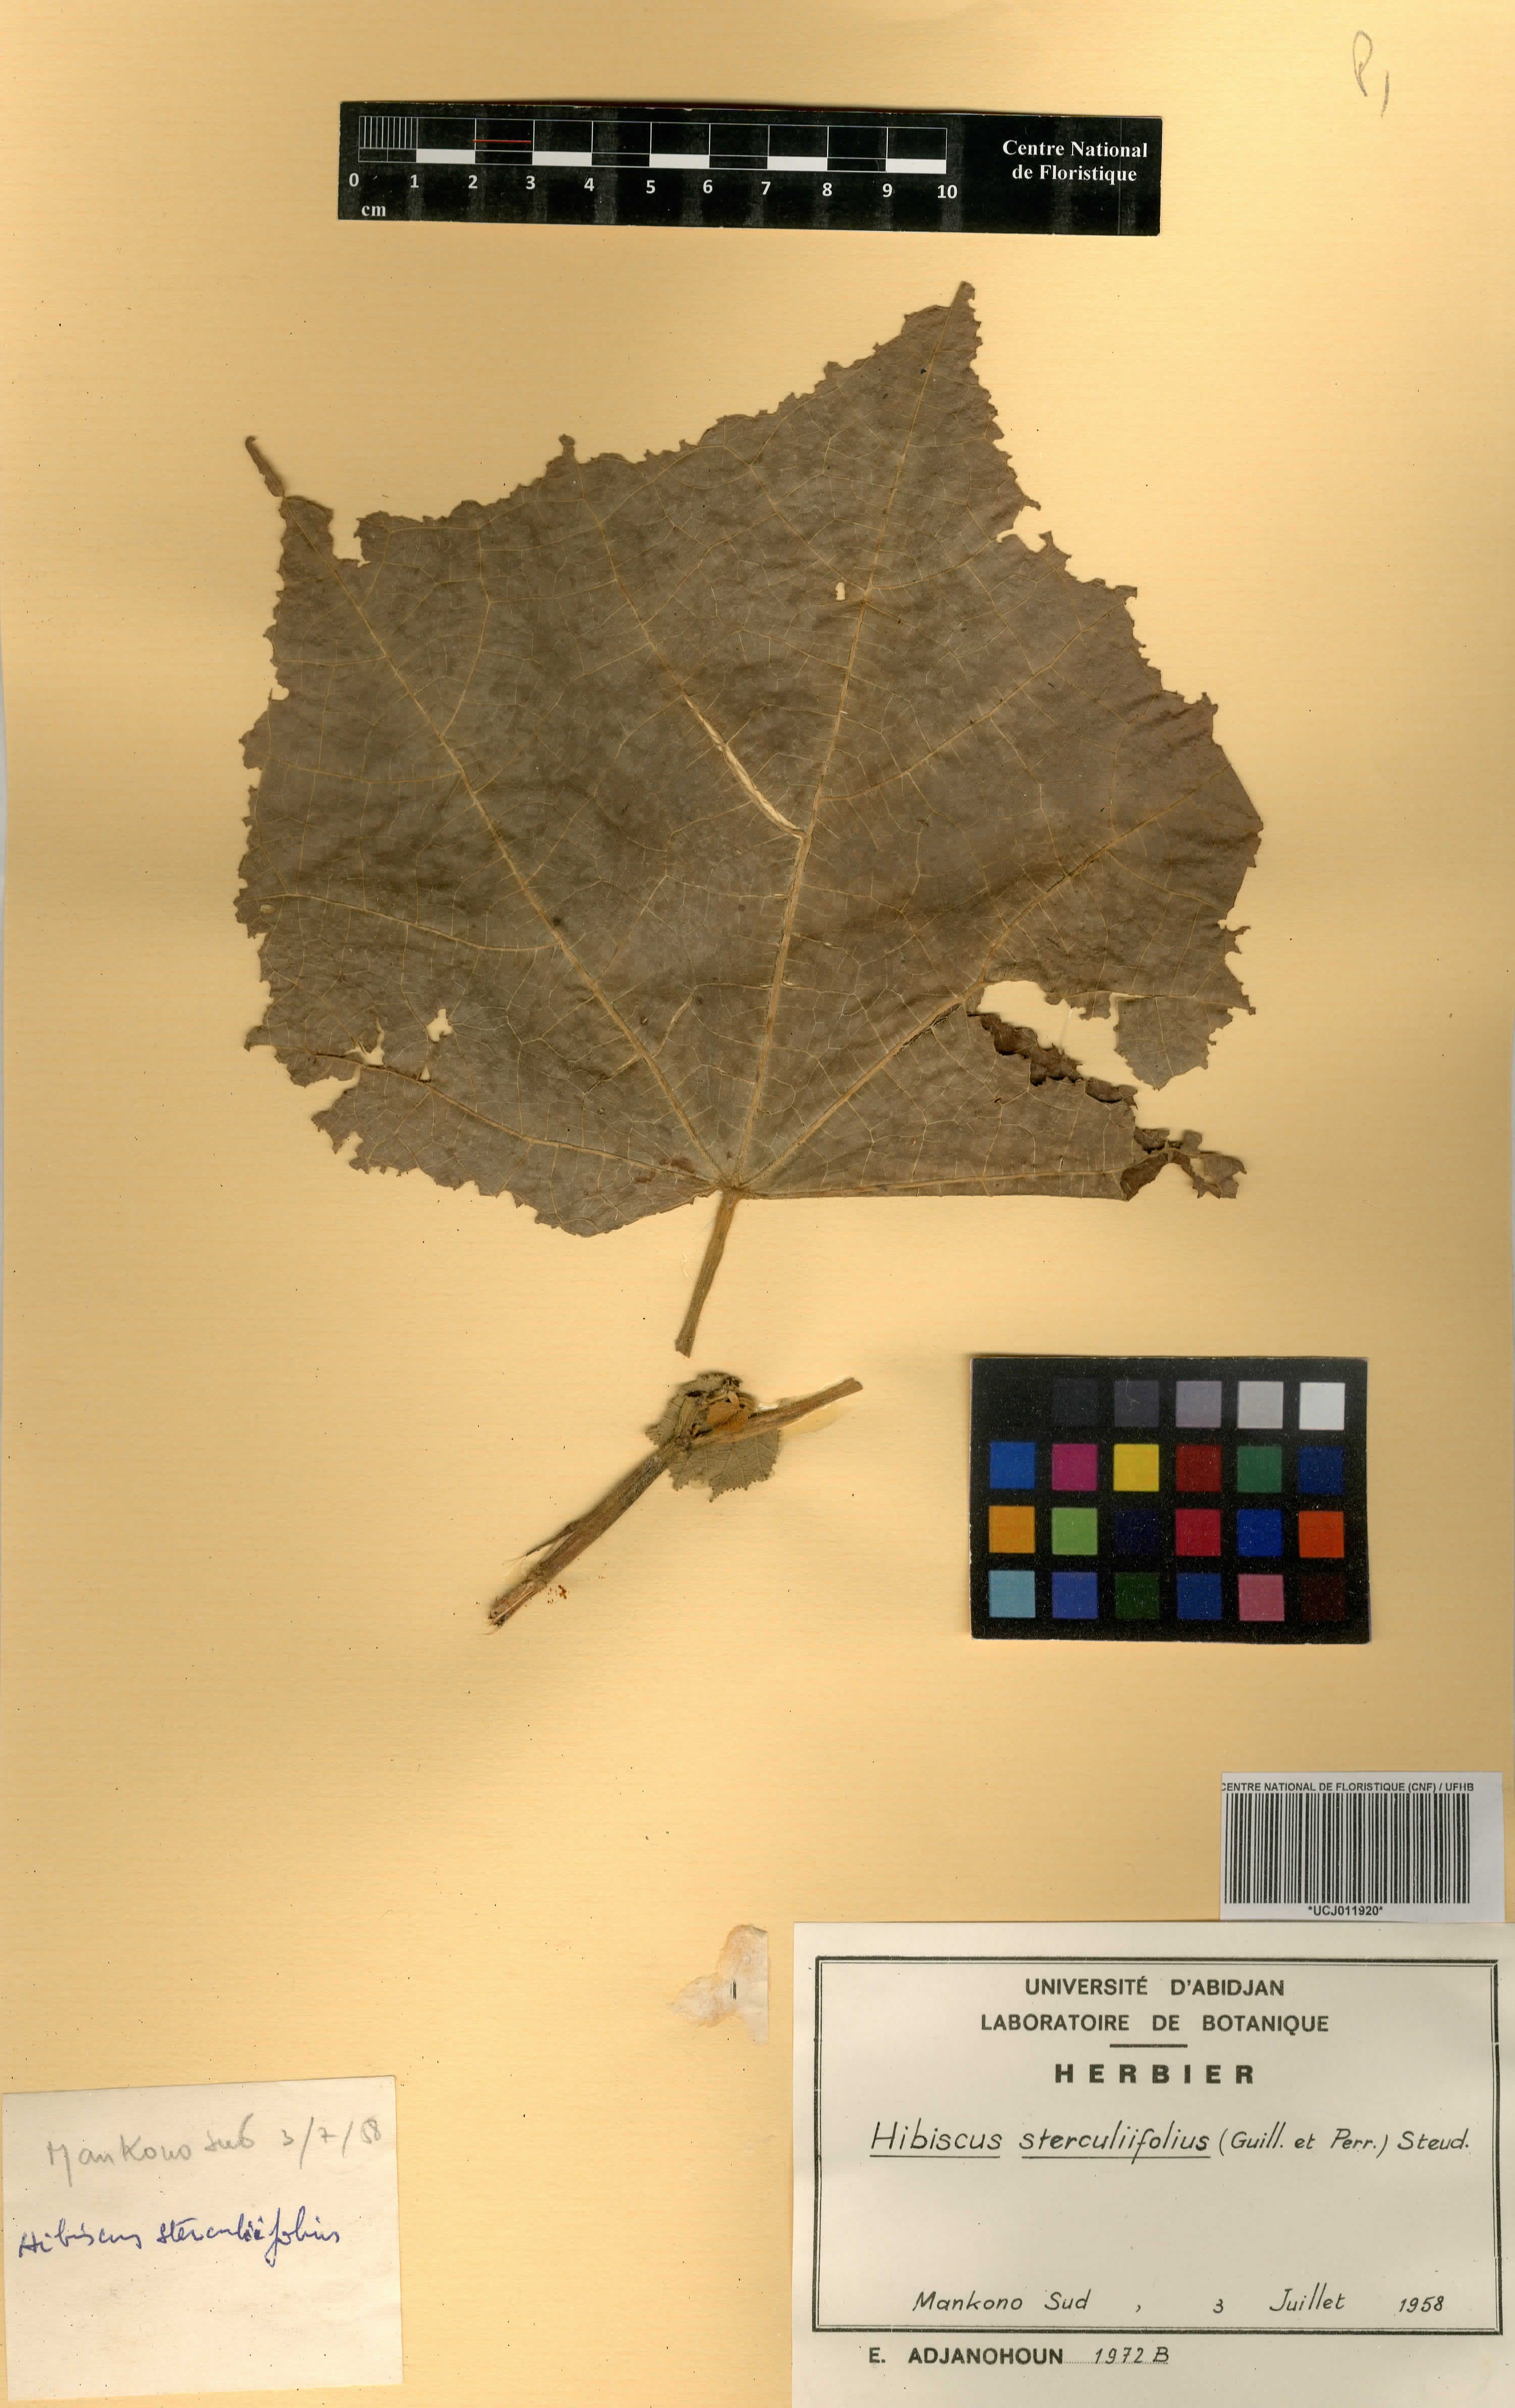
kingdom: Plantae
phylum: Tracheophyta
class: Magnoliopsida
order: Malvales
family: Malvaceae
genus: Hibiscus
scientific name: Hibiscus sterculiifolius
